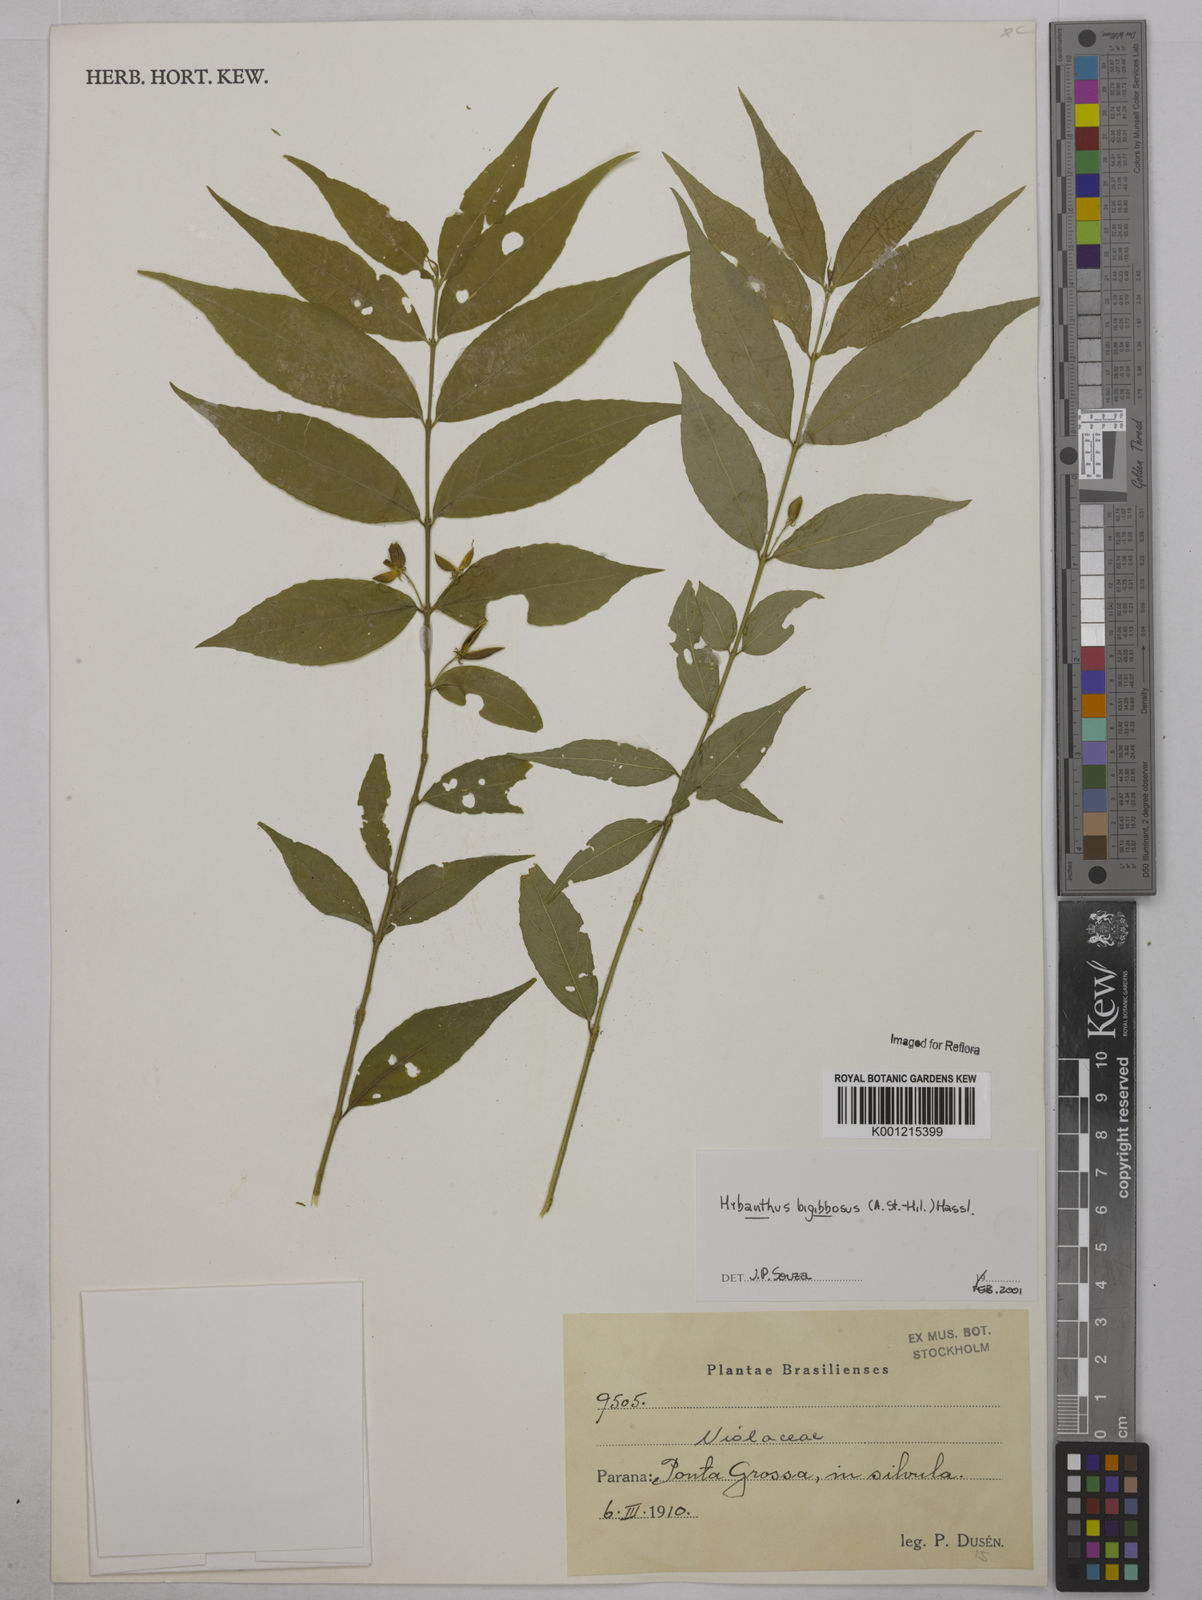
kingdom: Plantae
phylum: Tracheophyta
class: Magnoliopsida
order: Malpighiales
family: Violaceae
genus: Pombalia
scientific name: Pombalia bigibbosa
